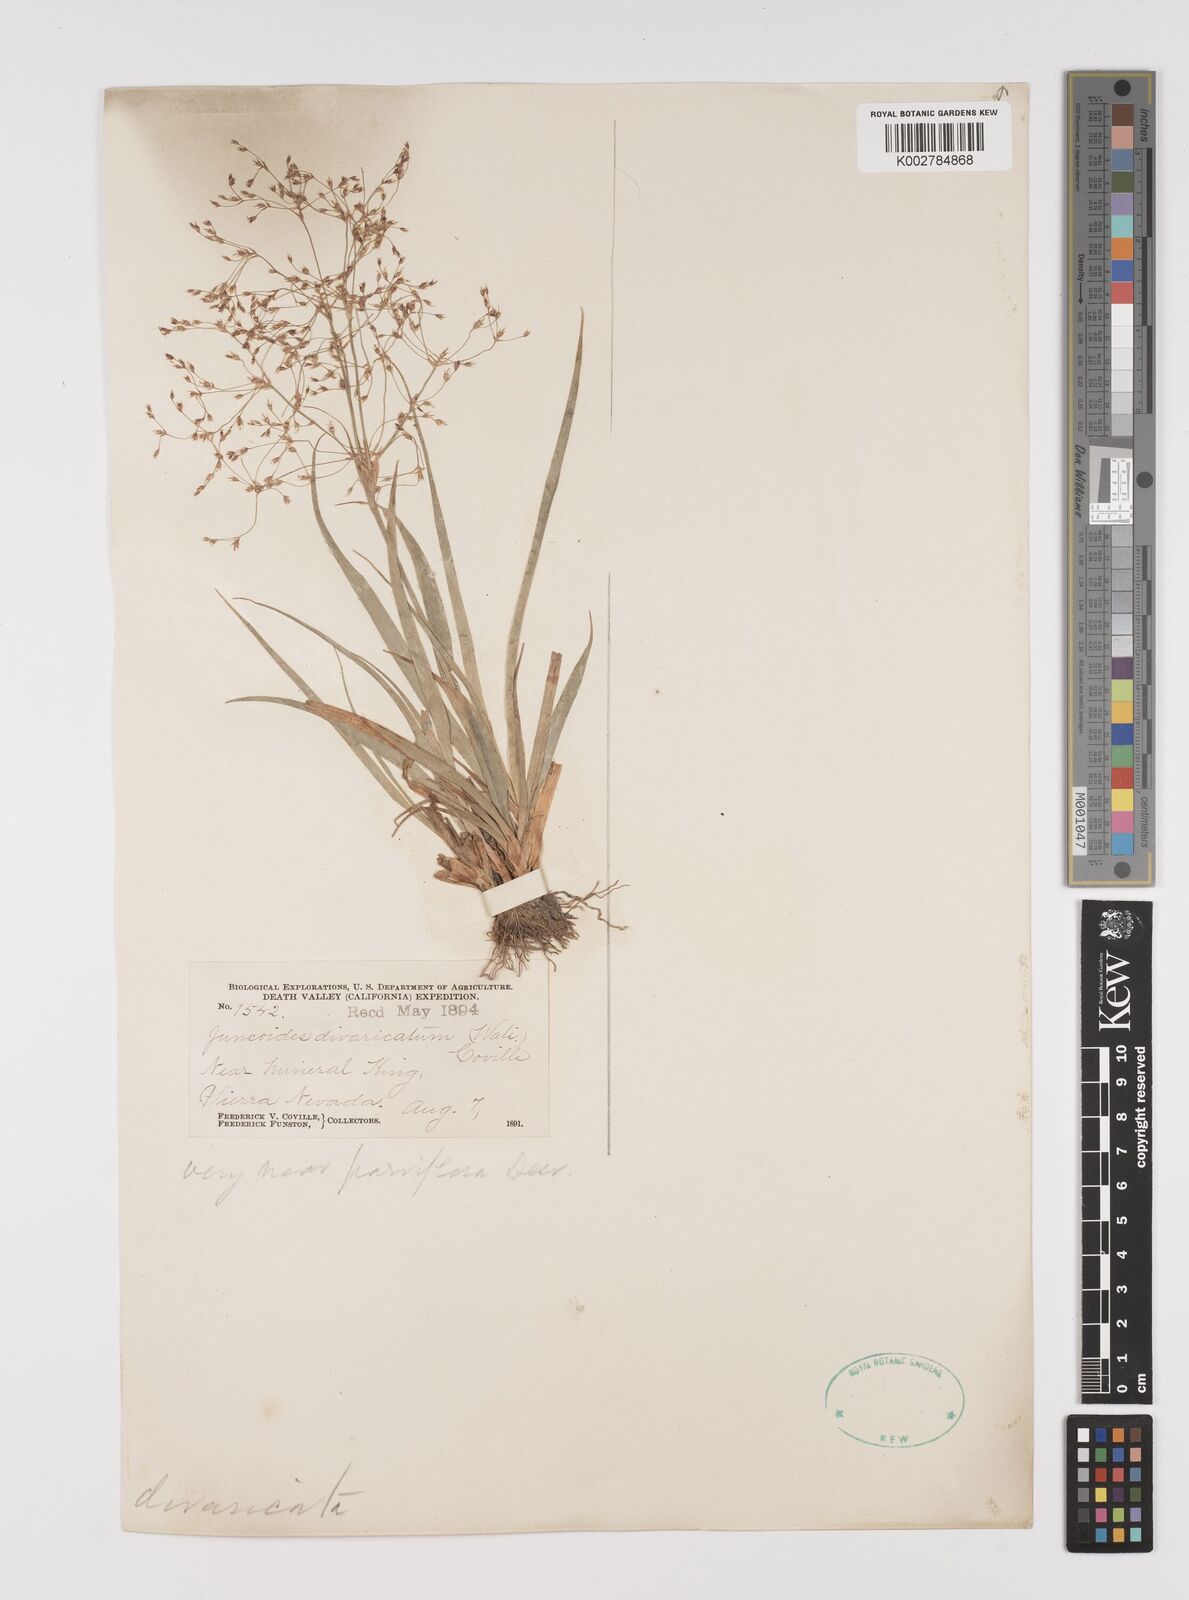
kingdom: Plantae
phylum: Tracheophyta
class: Liliopsida
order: Poales
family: Juncaceae
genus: Luzula
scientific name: Luzula divaricata
